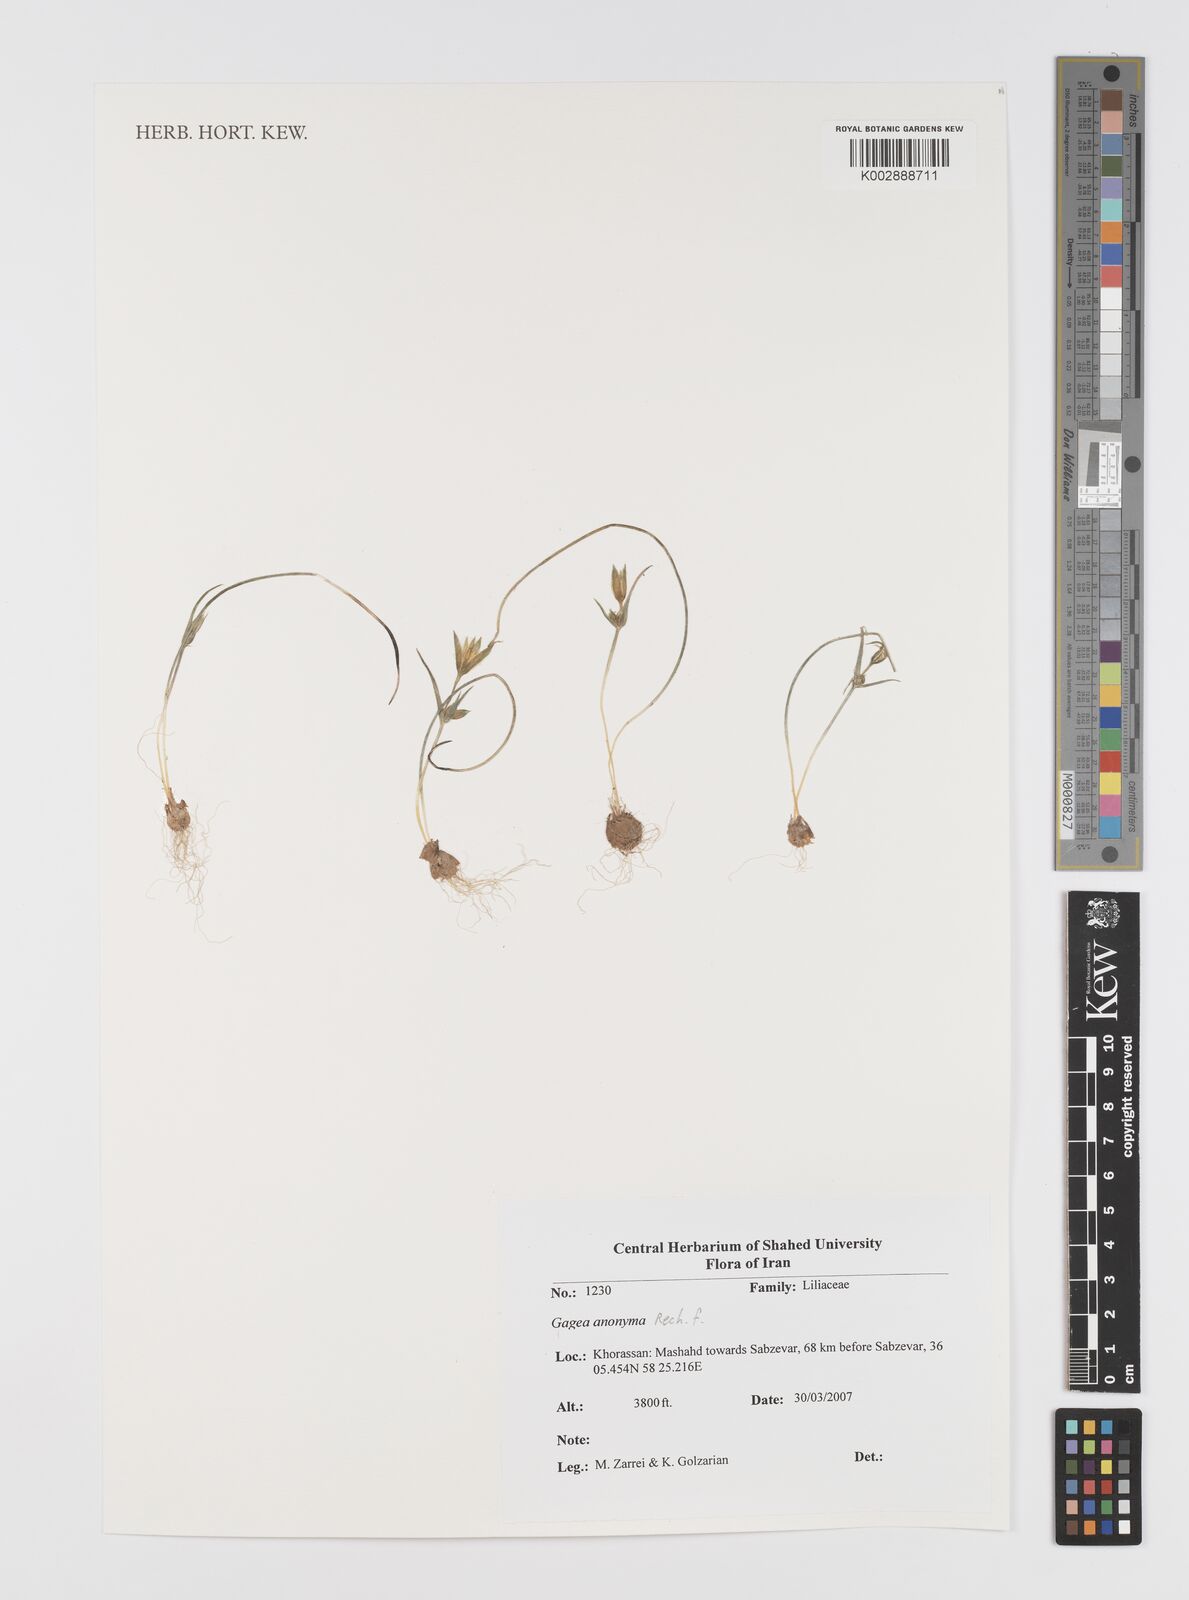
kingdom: Plantae
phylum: Tracheophyta
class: Liliopsida
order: Liliales
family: Liliaceae
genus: Gagea
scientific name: Gagea setifolia
